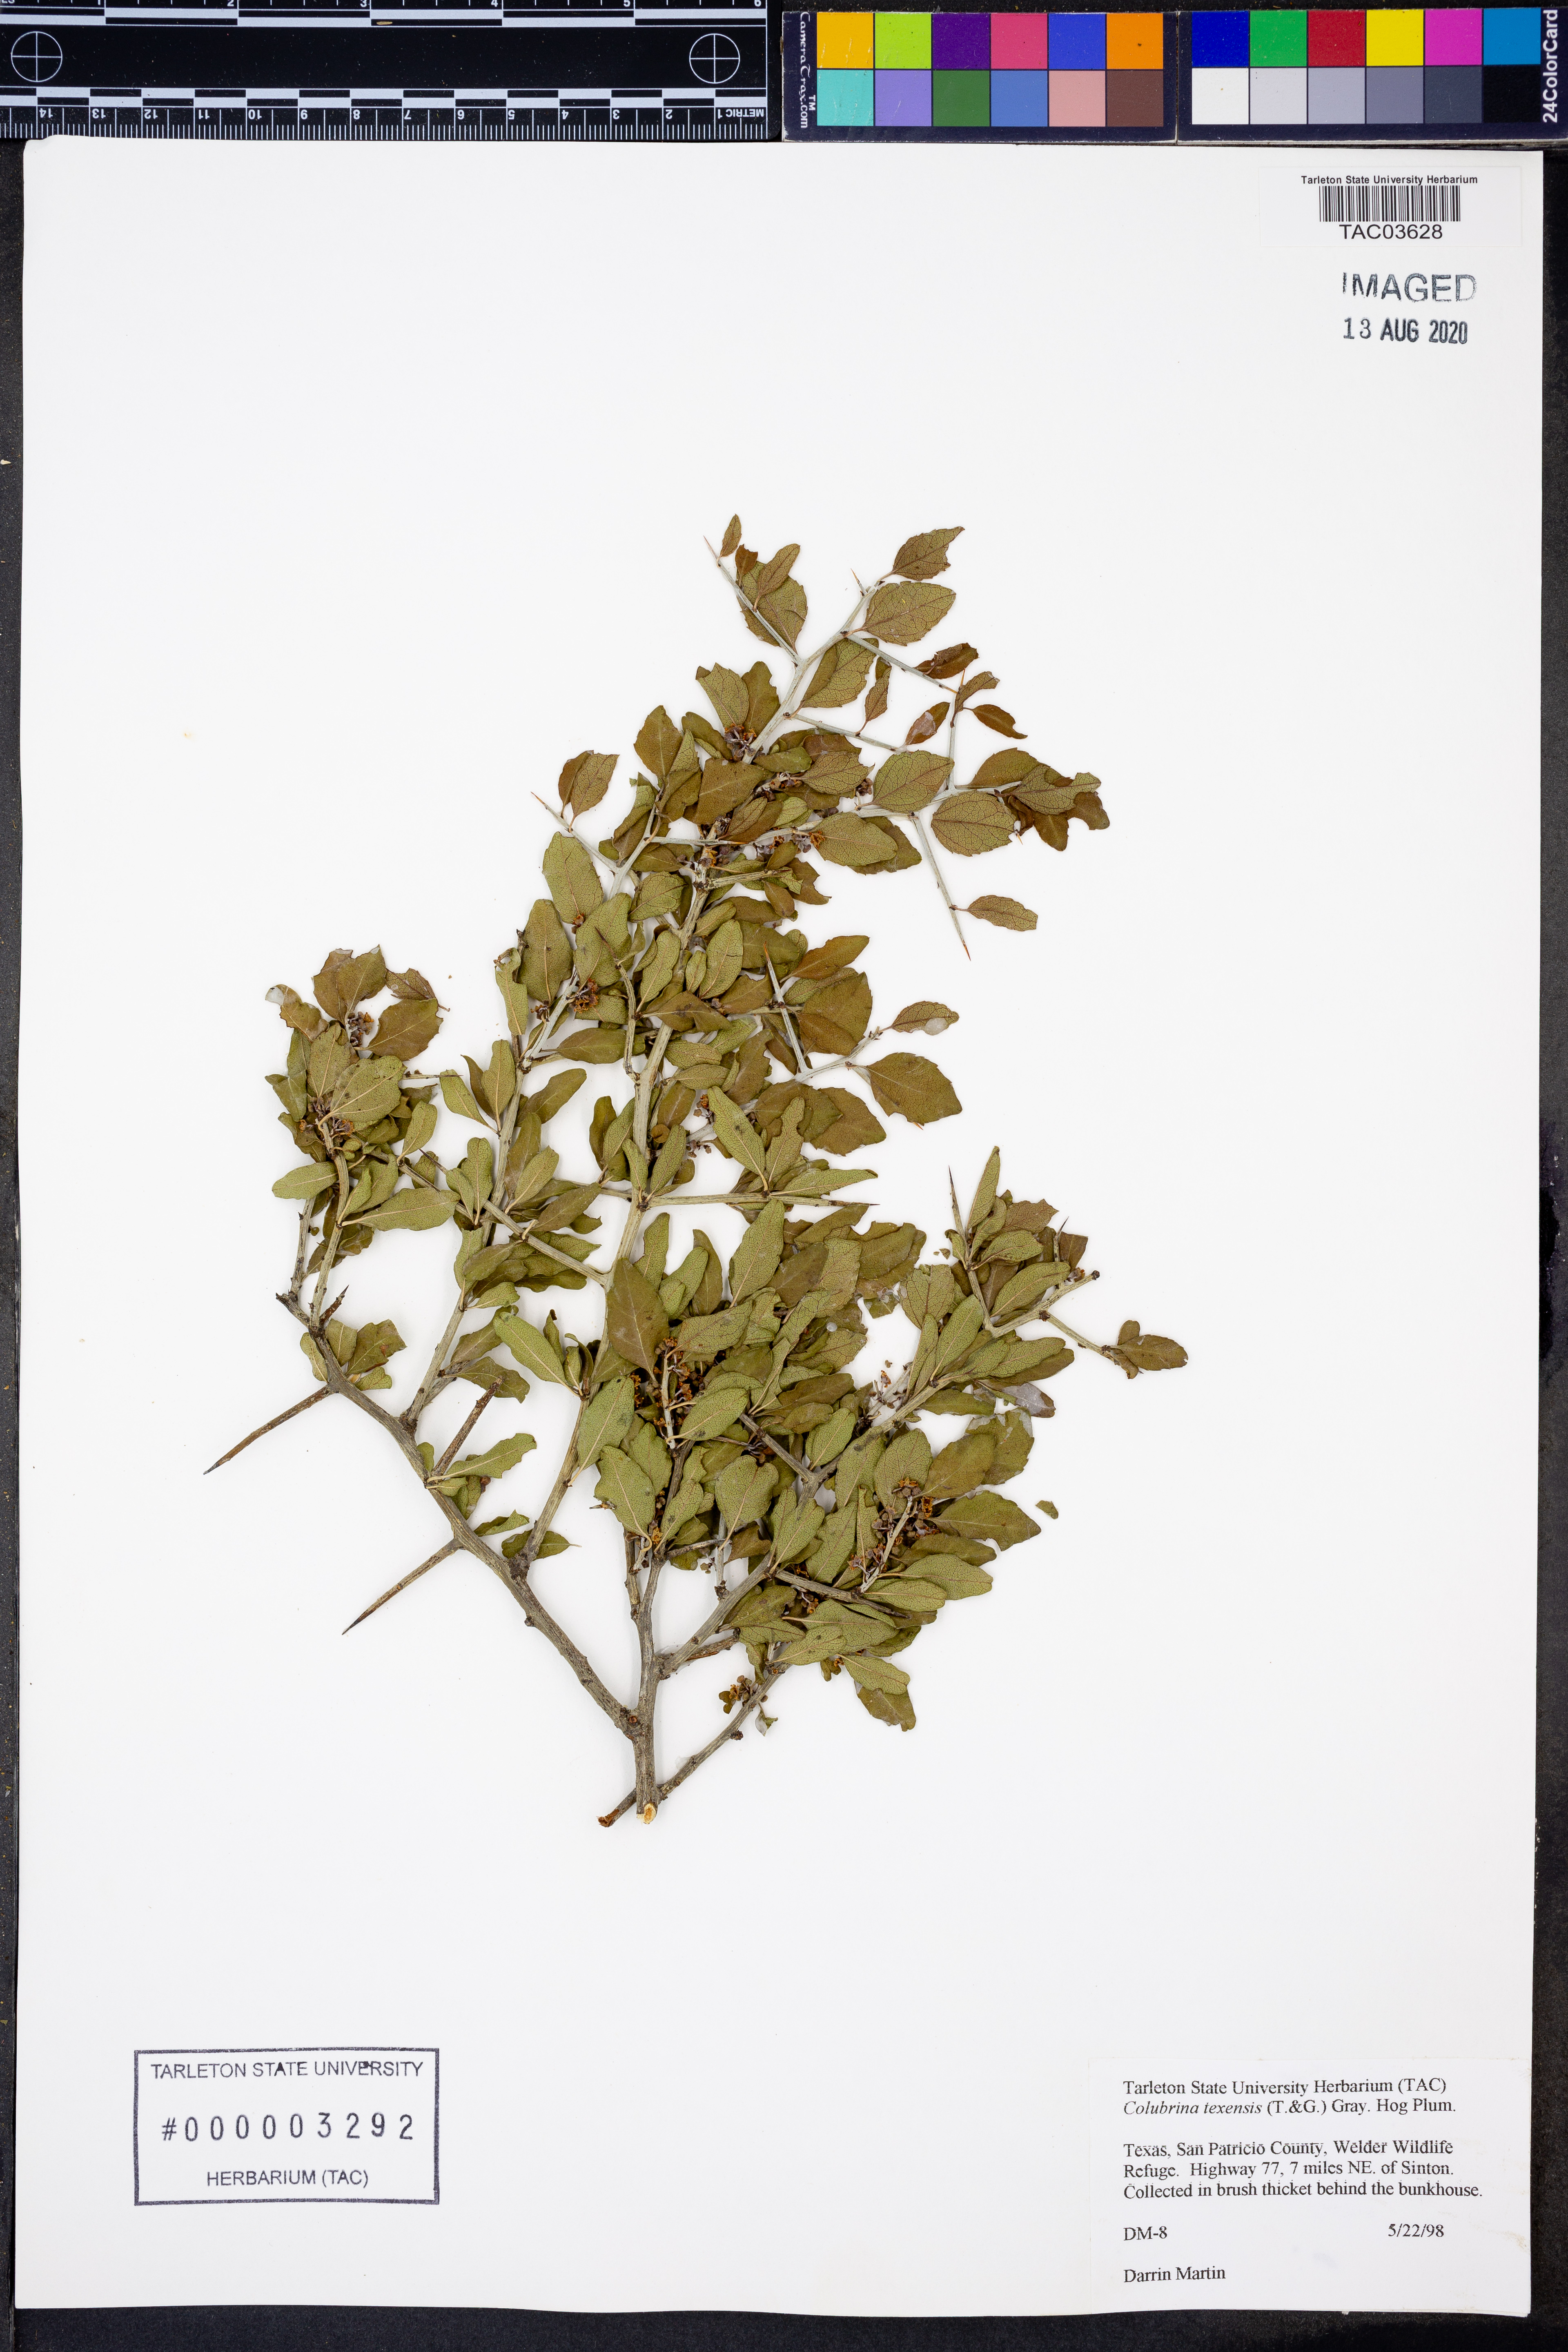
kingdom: Plantae
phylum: Tracheophyta
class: Magnoliopsida
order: Rosales
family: Rhamnaceae
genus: Colubrina
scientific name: Colubrina texensis
